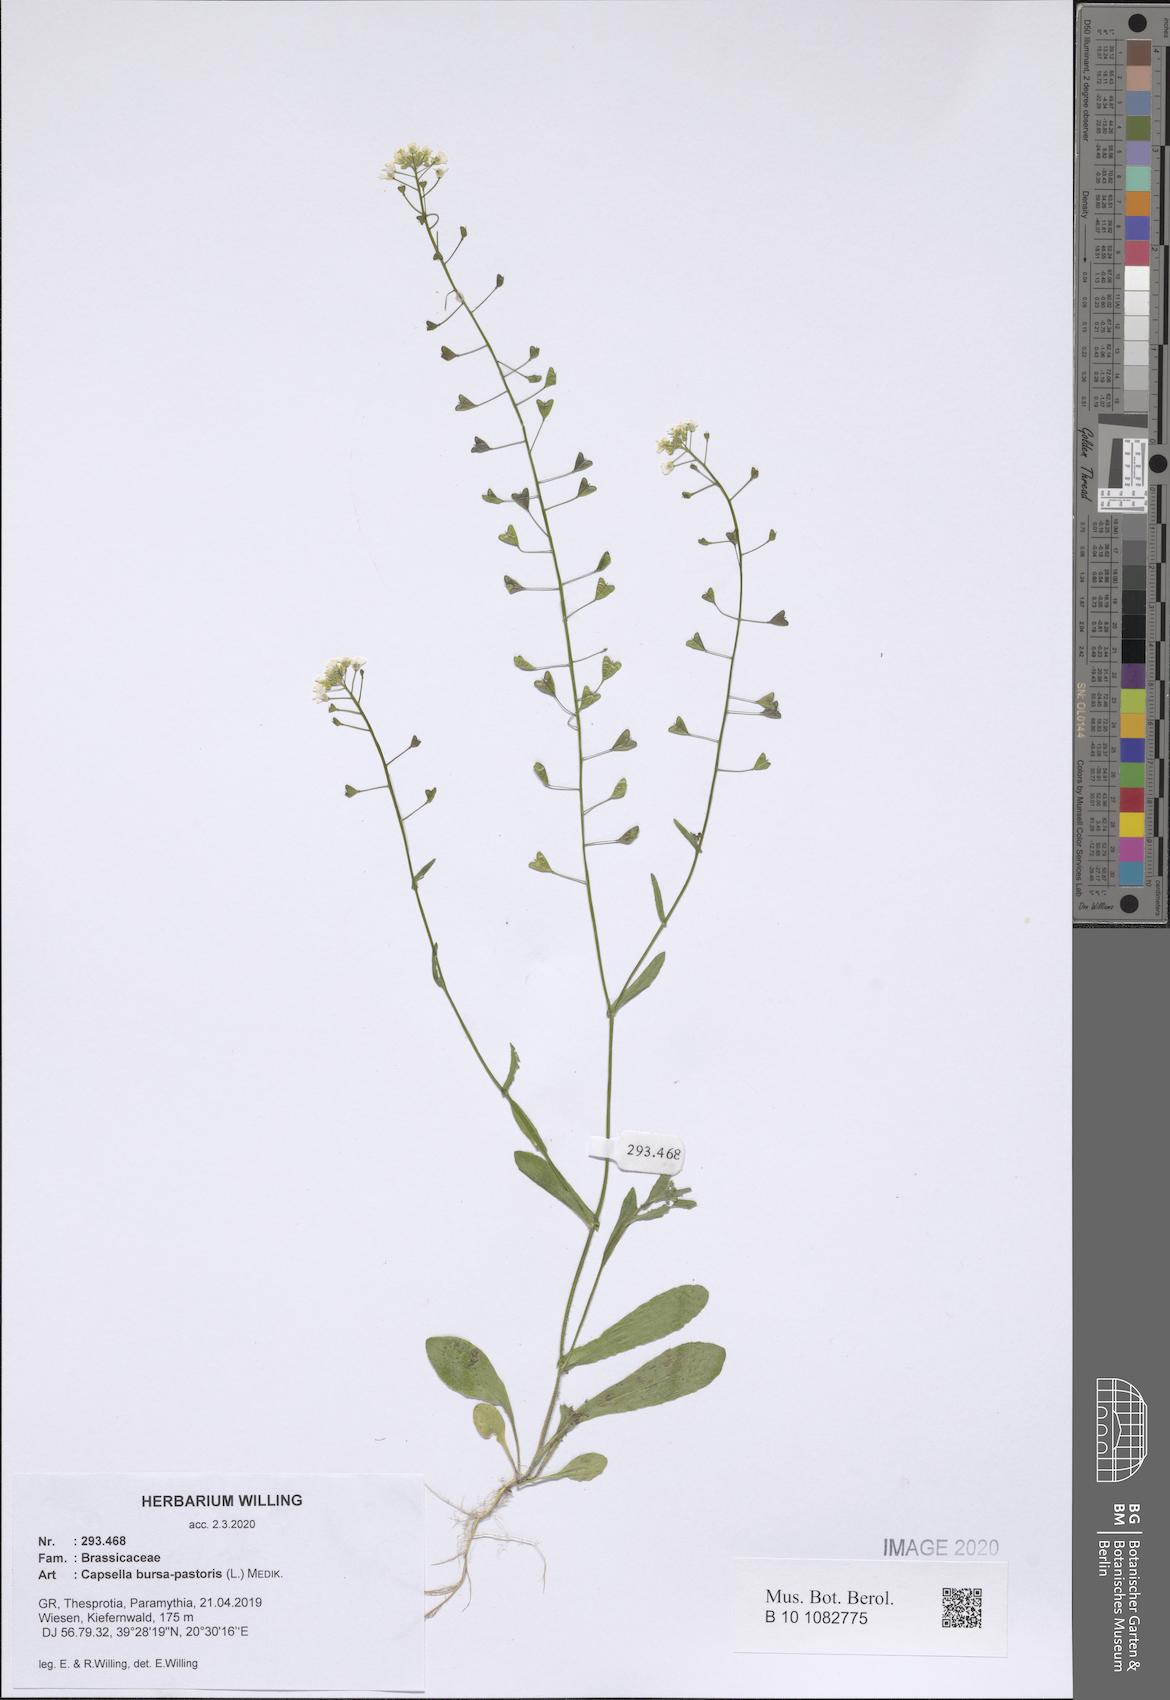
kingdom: Plantae
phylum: Tracheophyta
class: Magnoliopsida
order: Brassicales
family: Brassicaceae
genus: Capsella
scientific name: Capsella bursa-pastoris
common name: Shepherd's purse
